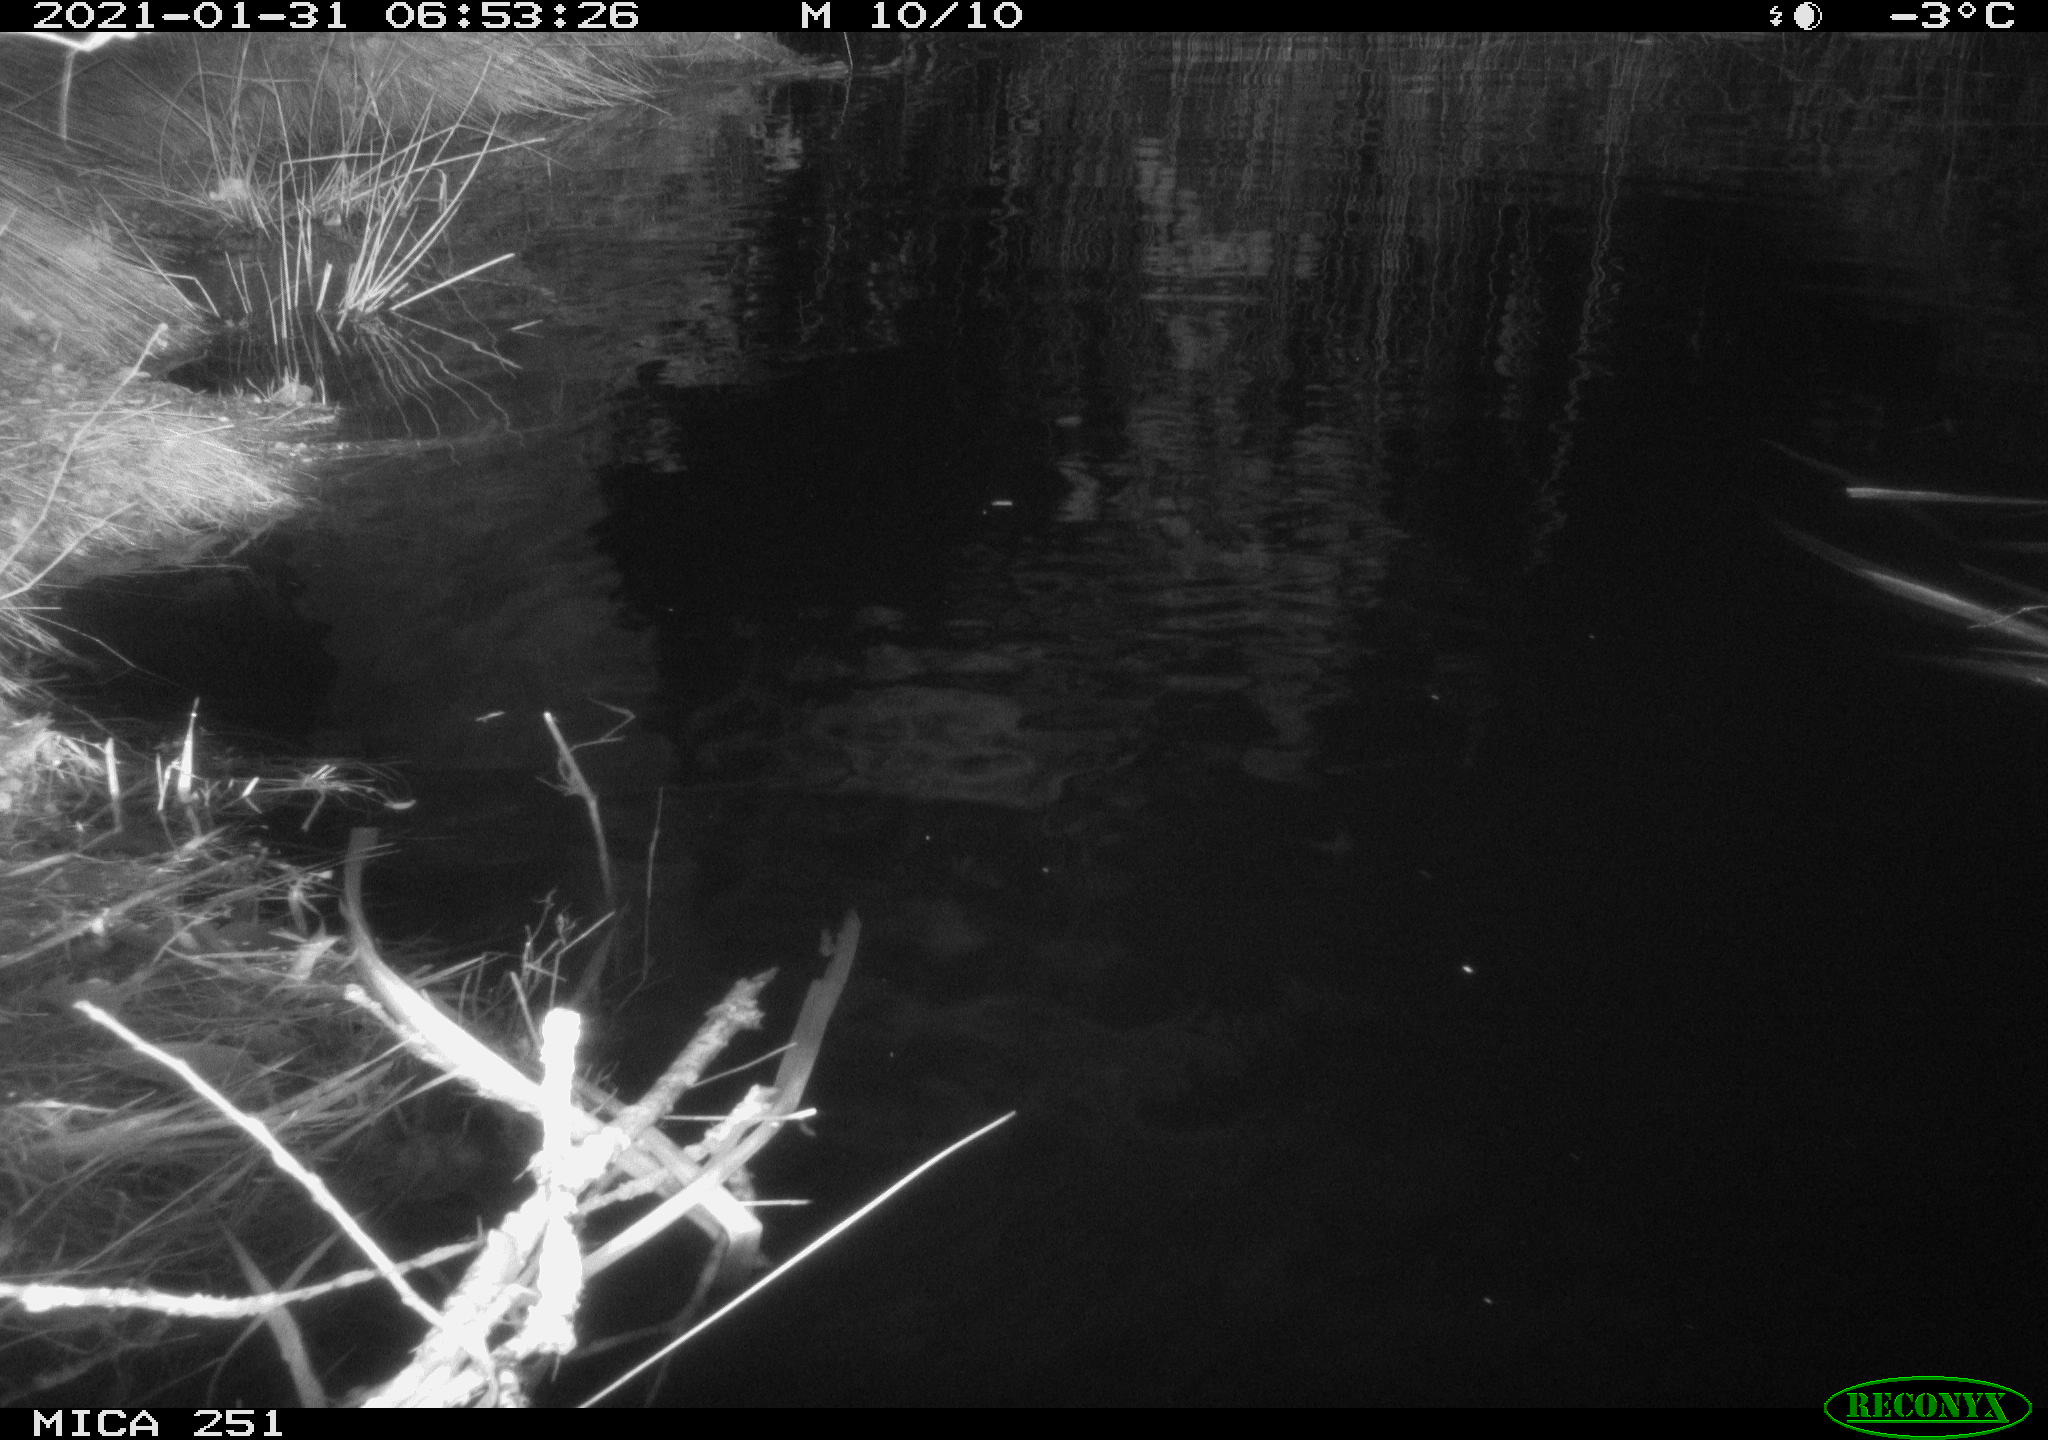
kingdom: Animalia
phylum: Chordata
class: Aves
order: Anseriformes
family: Anatidae
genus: Anas
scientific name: Anas platyrhynchos
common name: Mallard
